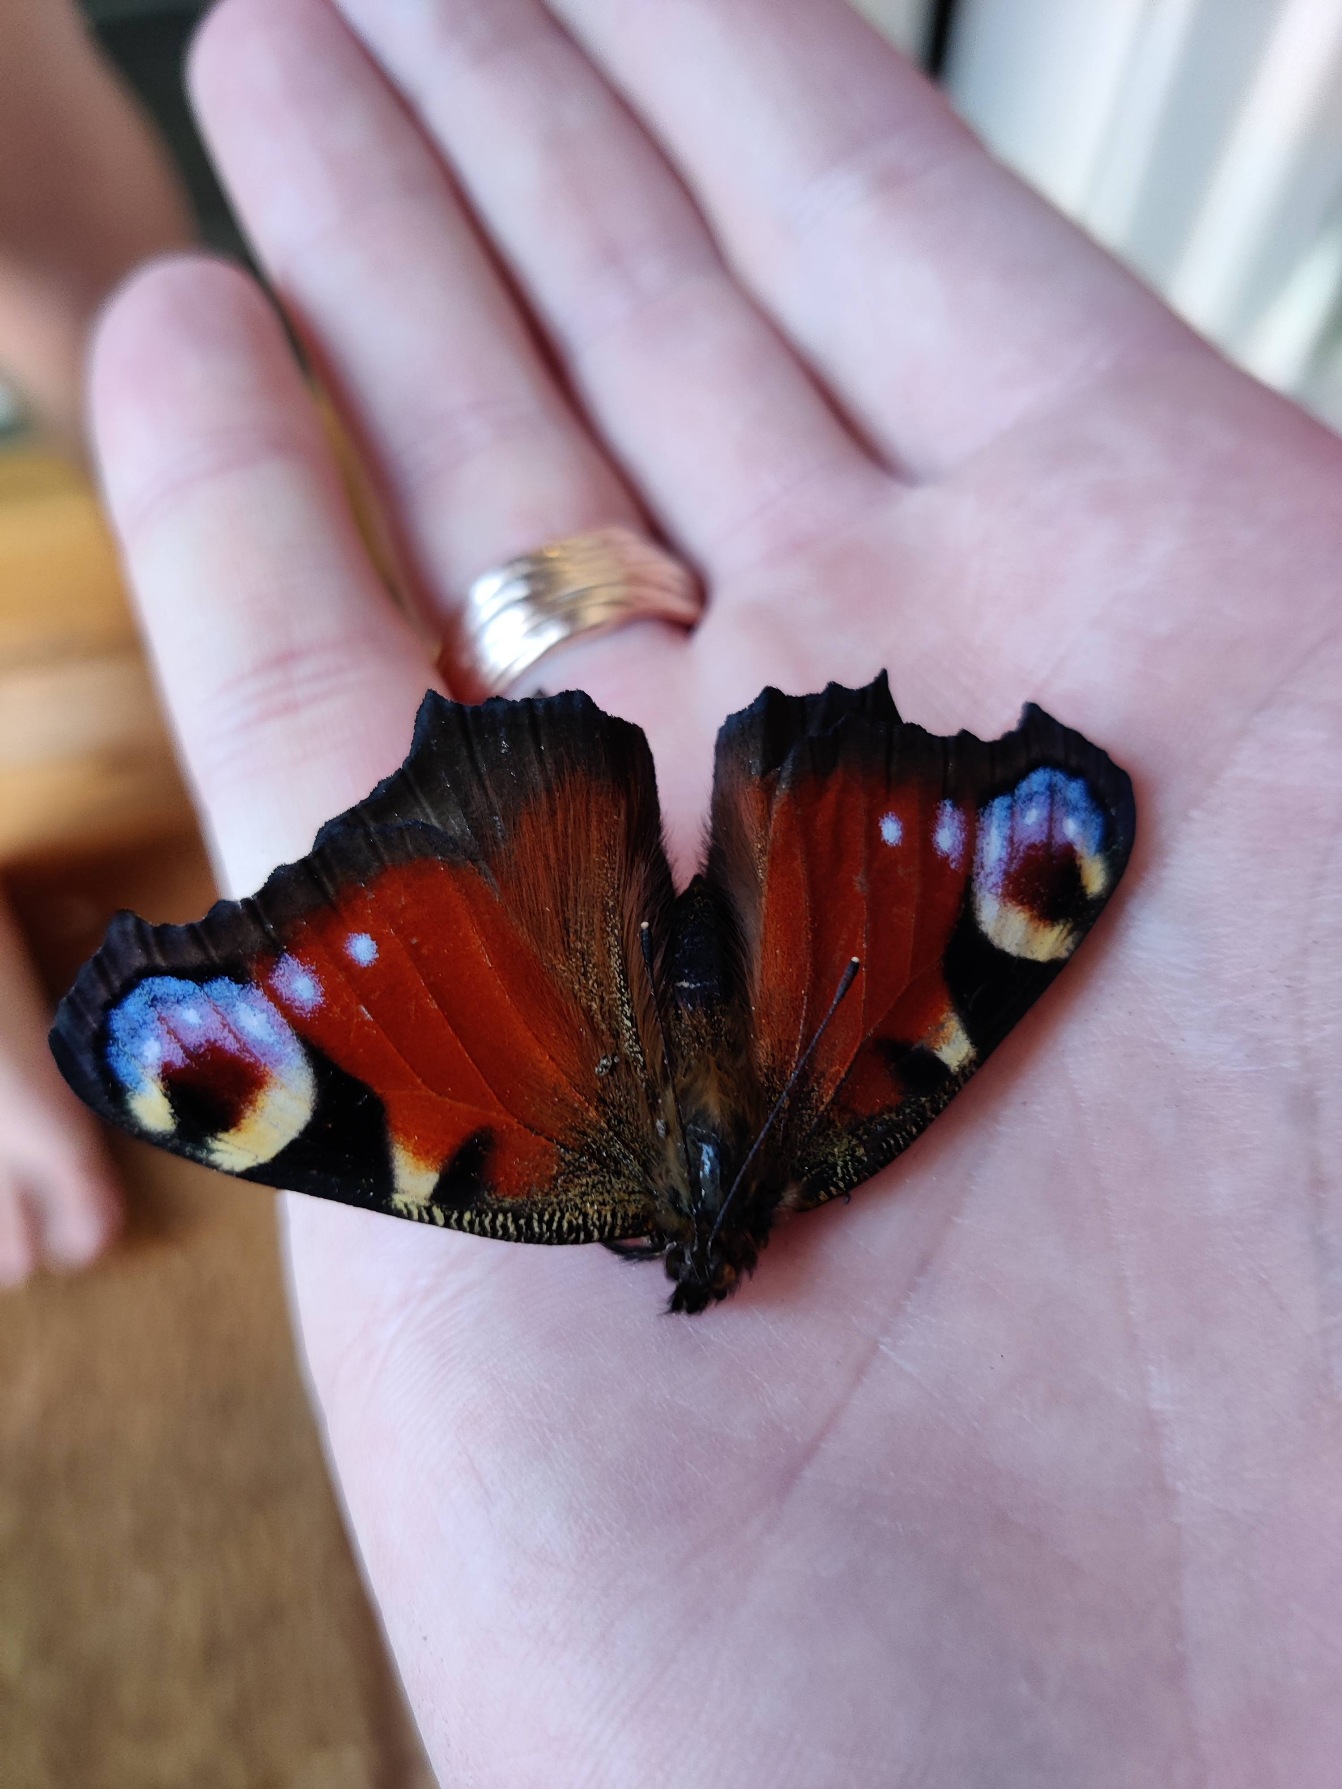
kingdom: Animalia
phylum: Arthropoda
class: Insecta
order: Lepidoptera
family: Nymphalidae
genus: Aglais
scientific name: Aglais io
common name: Dagpåfugleøje
